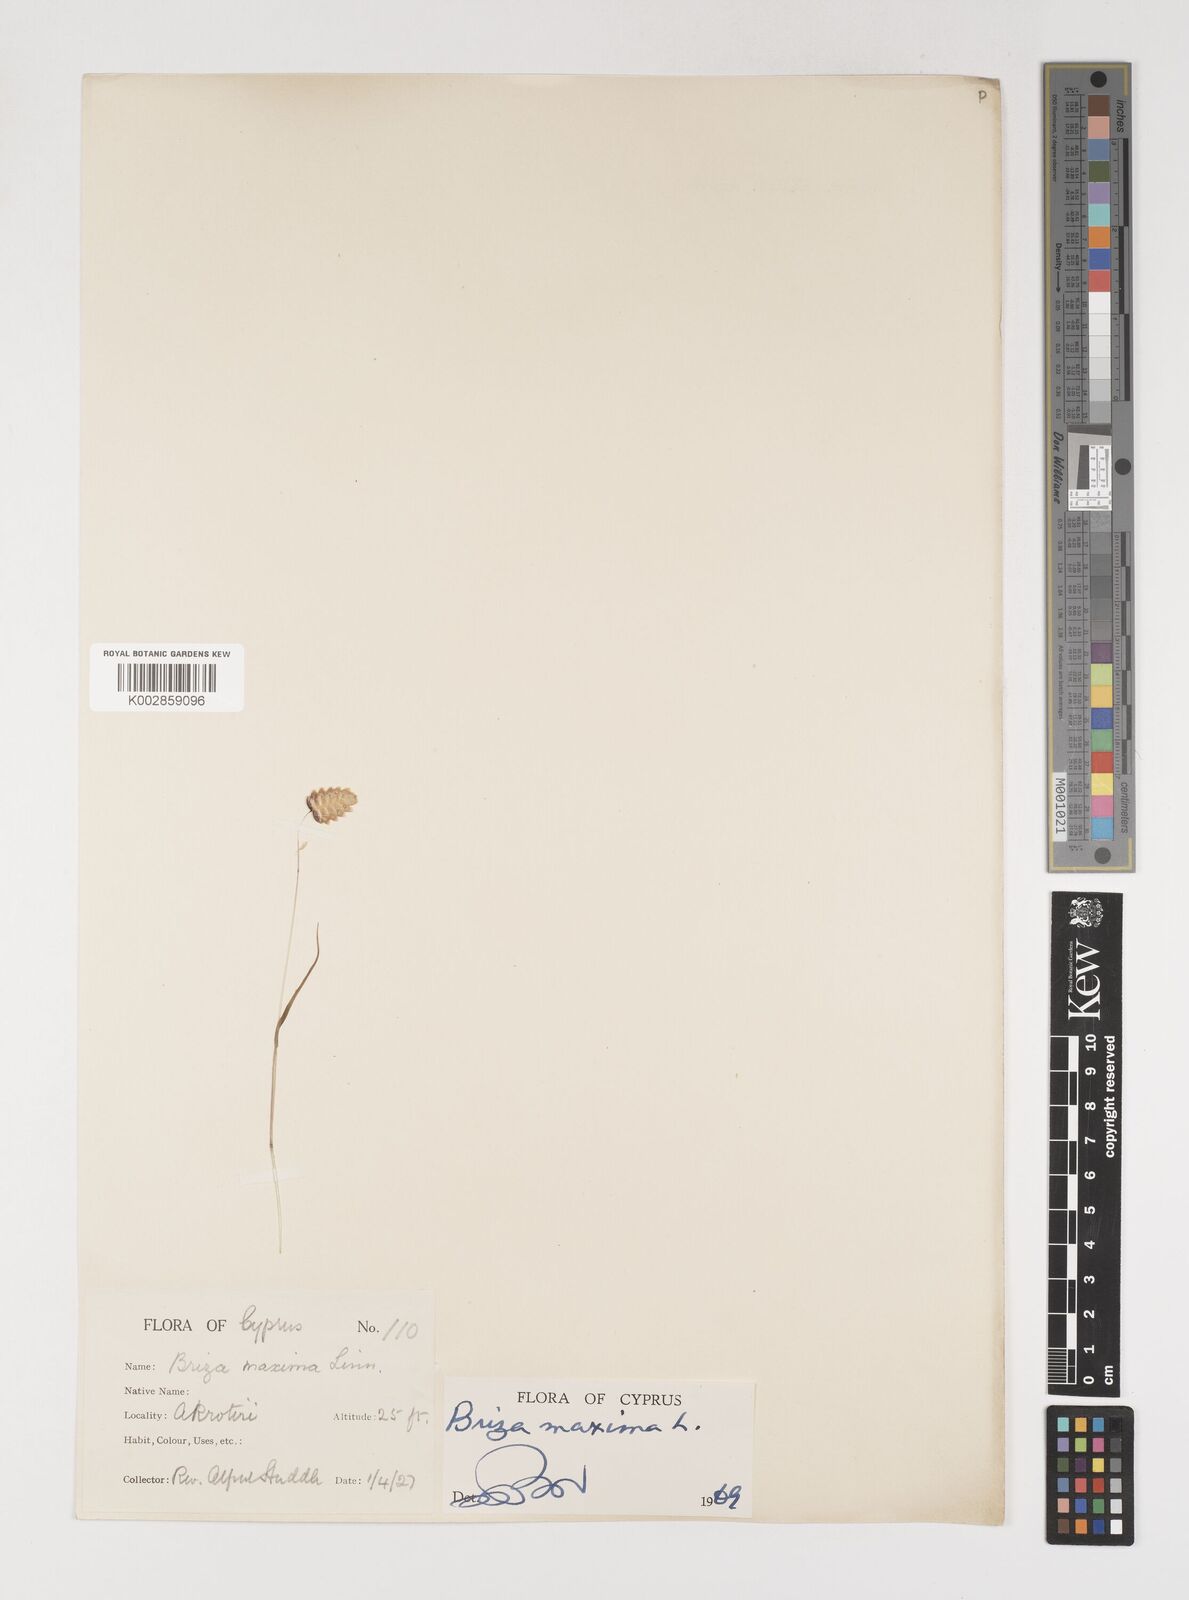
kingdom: Plantae
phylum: Tracheophyta
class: Liliopsida
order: Poales
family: Poaceae
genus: Briza
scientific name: Briza maxima
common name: Big quakinggrass
